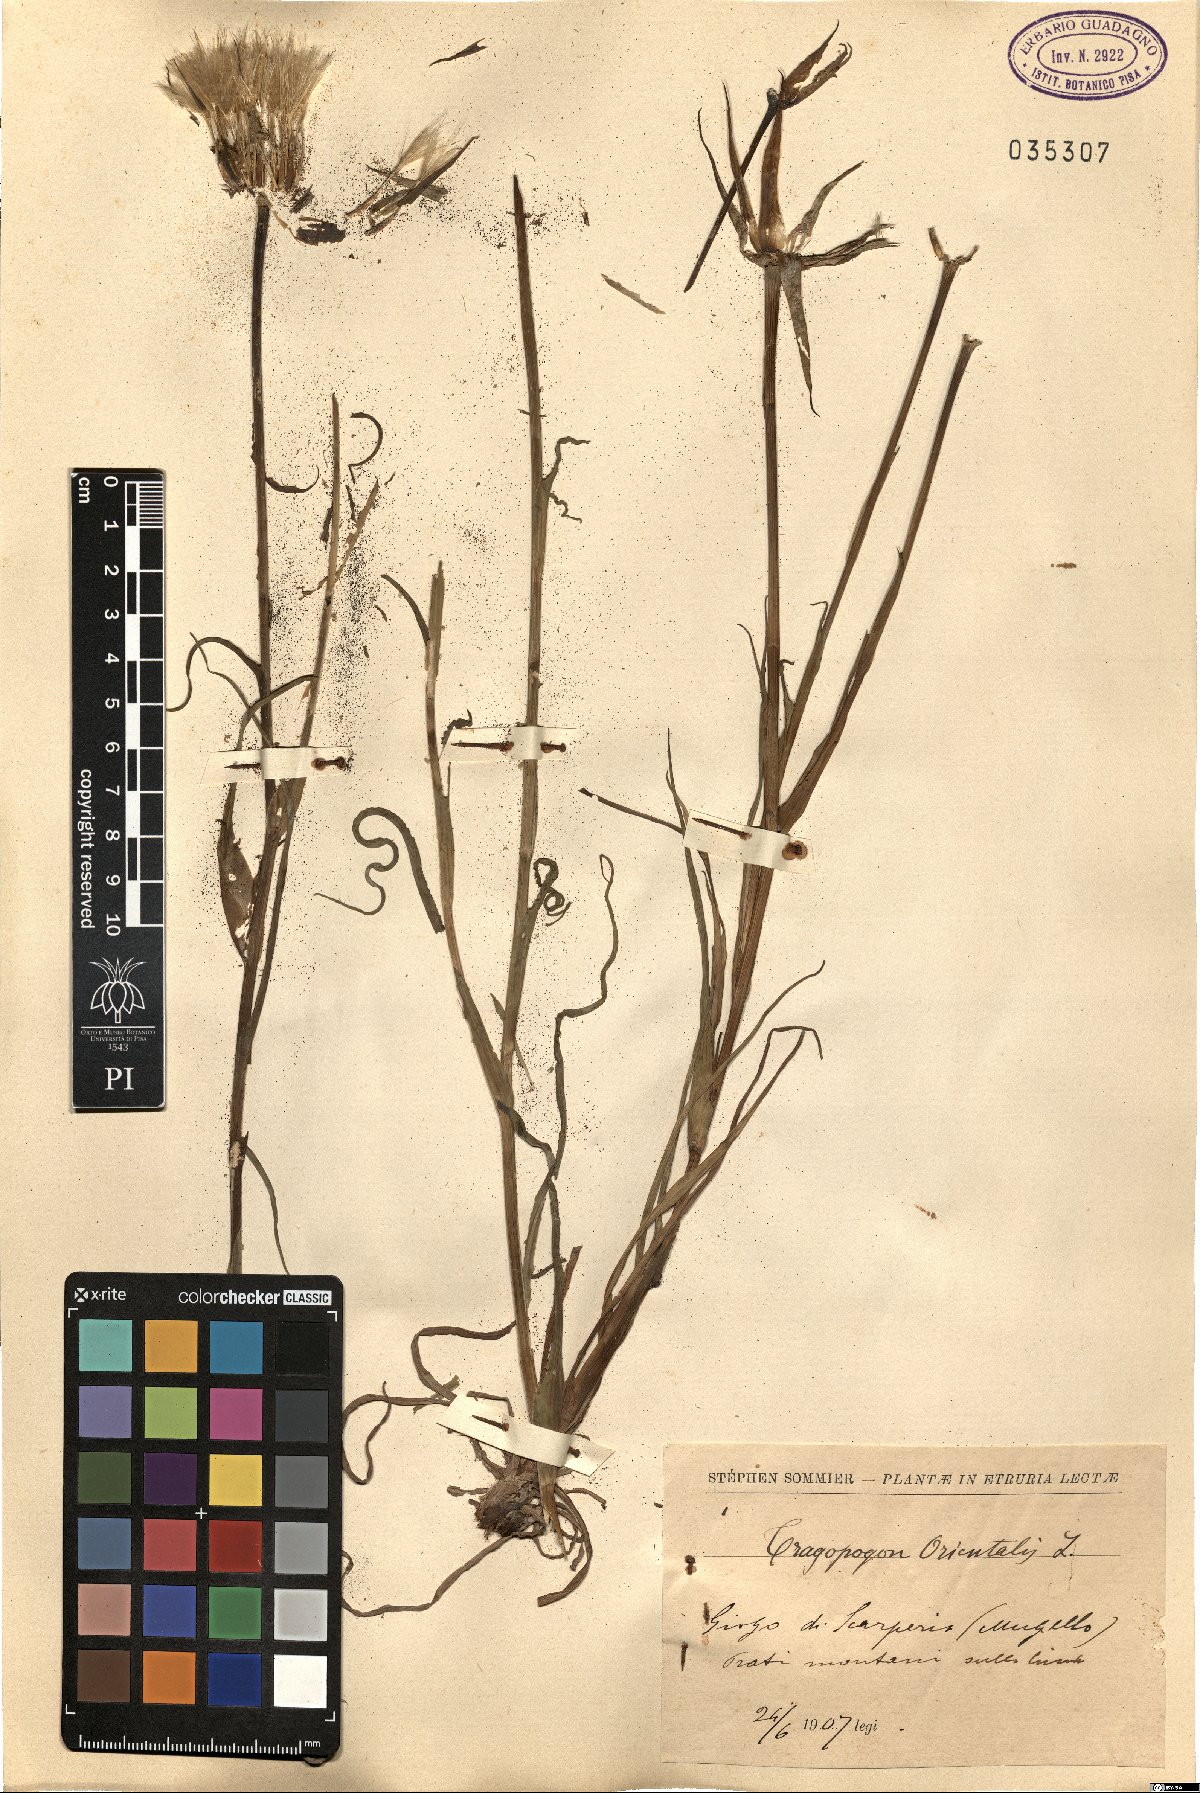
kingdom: Plantae
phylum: Tracheophyta
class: Magnoliopsida
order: Asterales
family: Asteraceae
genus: Tragopogon
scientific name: Tragopogon orientalis
